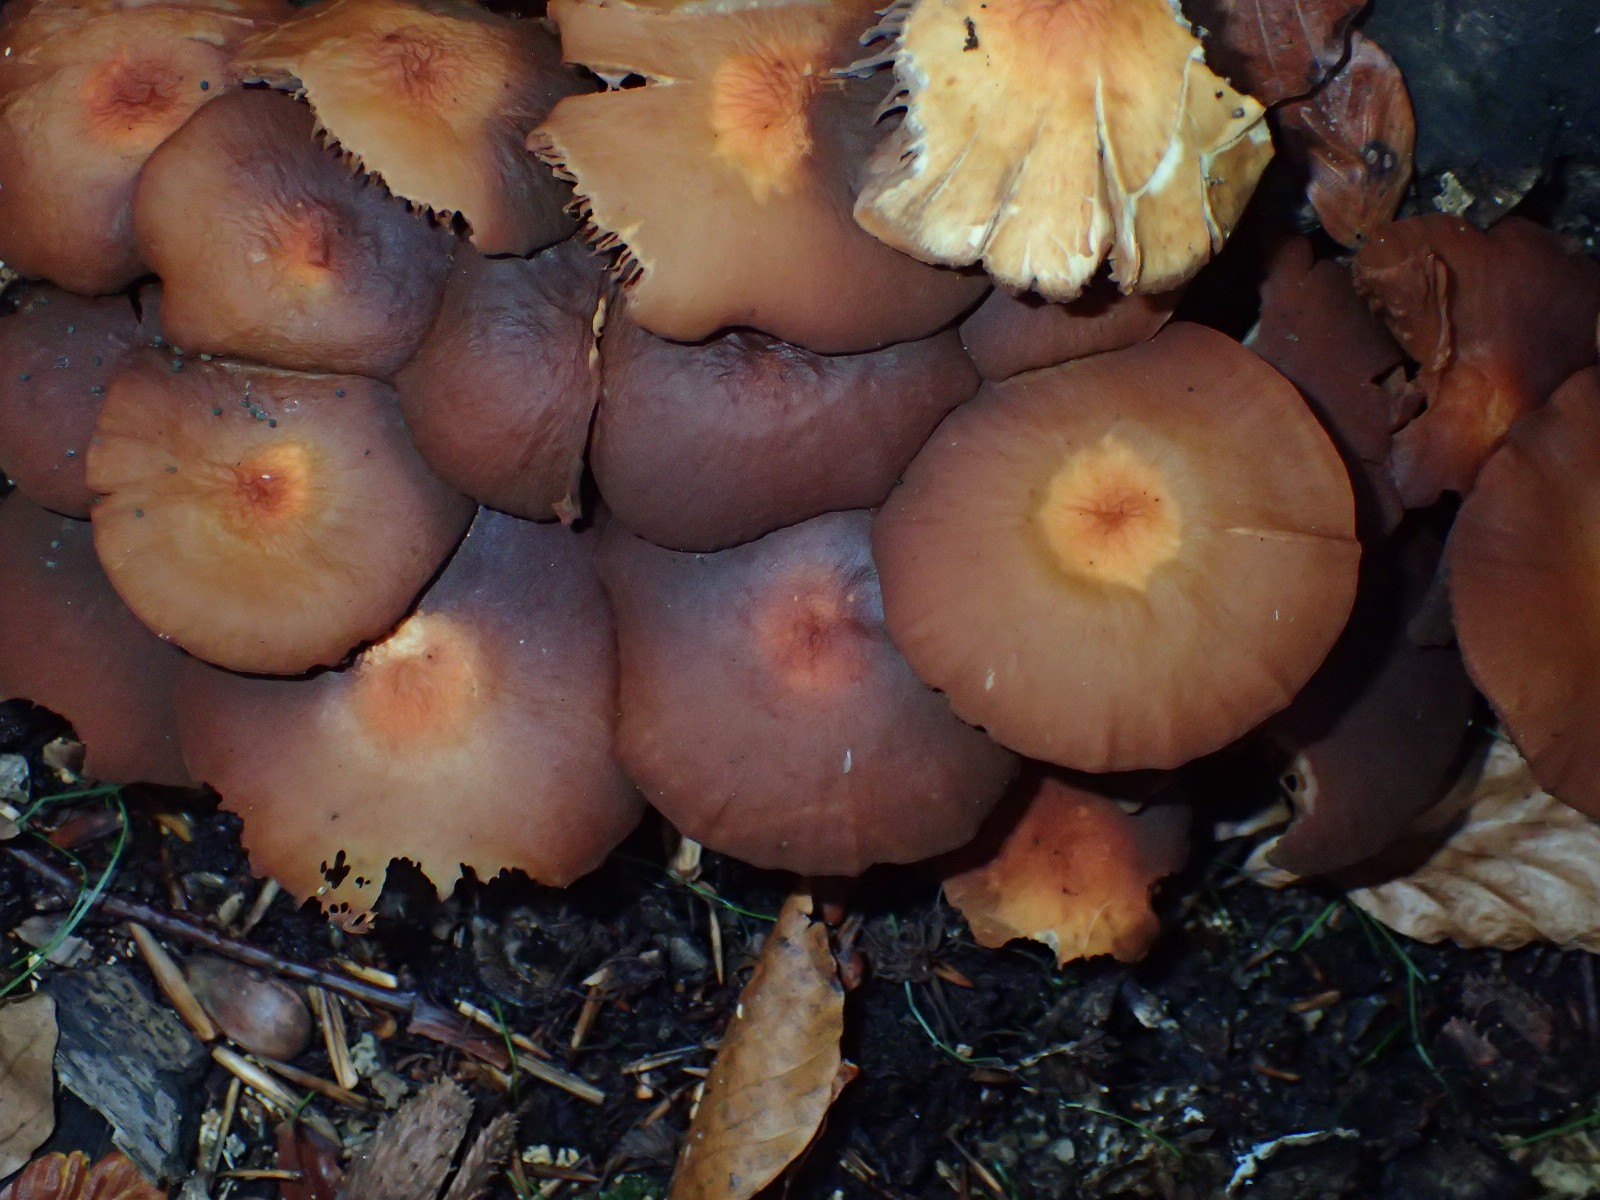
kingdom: Fungi
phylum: Basidiomycota
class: Agaricomycetes
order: Agaricales
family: Strophariaceae
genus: Kuehneromyces
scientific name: Kuehneromyces mutabilis
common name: foranderlig skælhat
